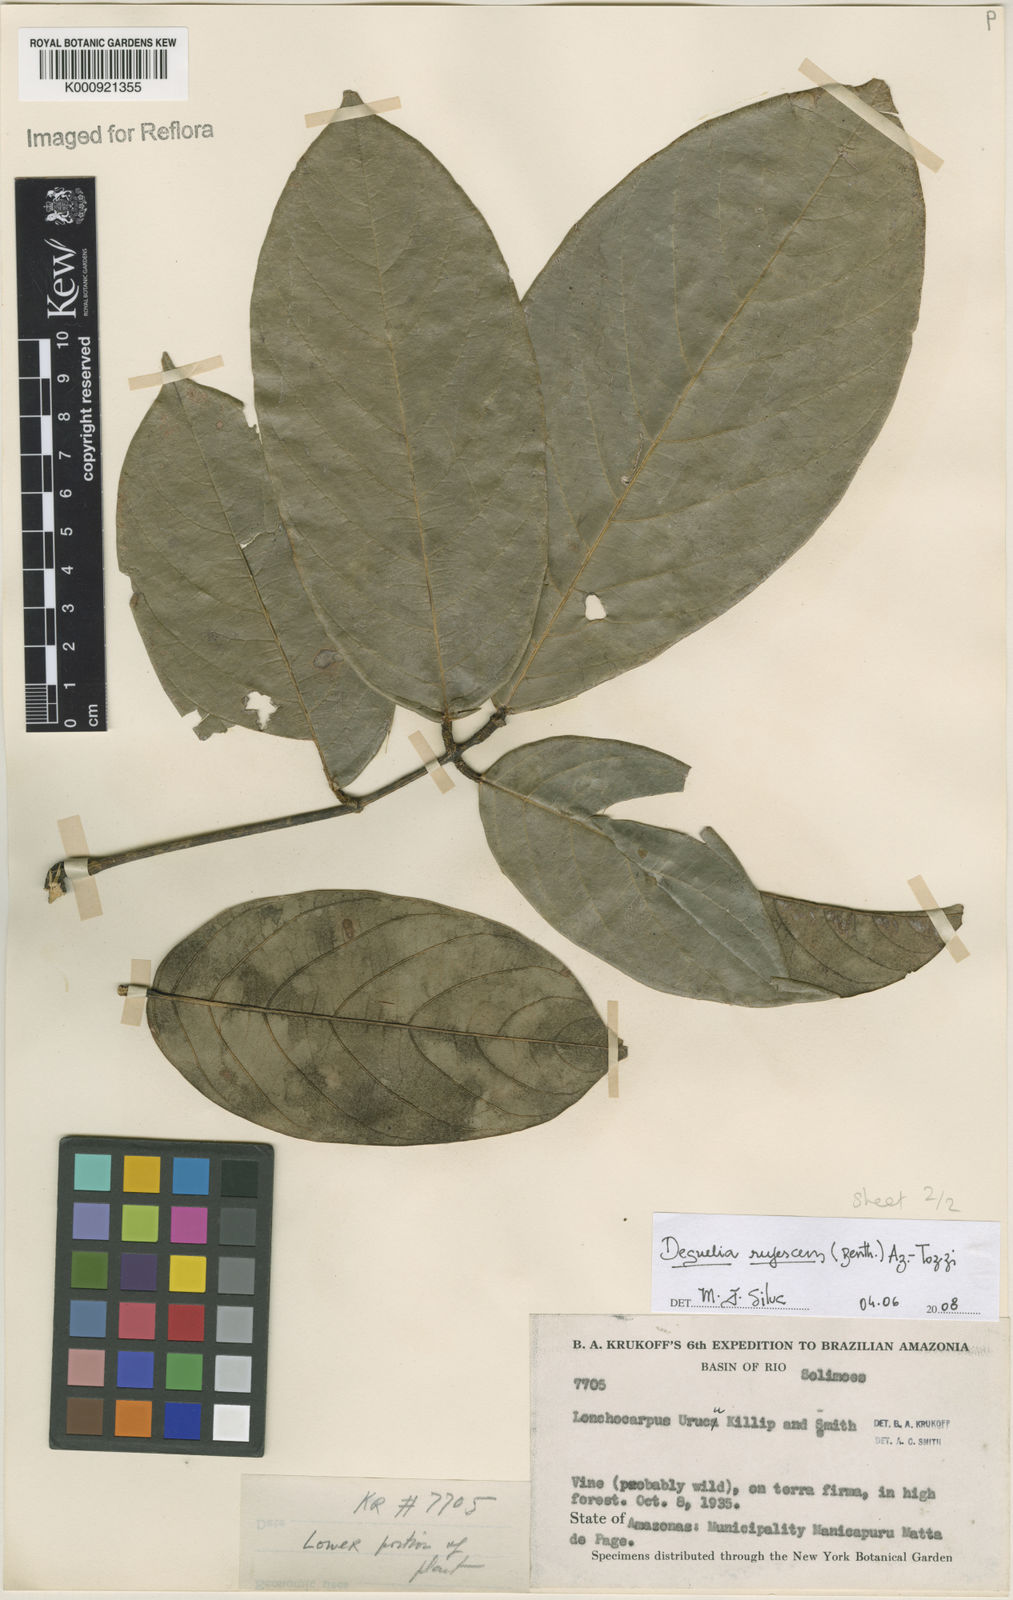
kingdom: Plantae
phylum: Tracheophyta
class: Magnoliopsida
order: Fabales
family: Fabaceae
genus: Deguelia
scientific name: Deguelia
